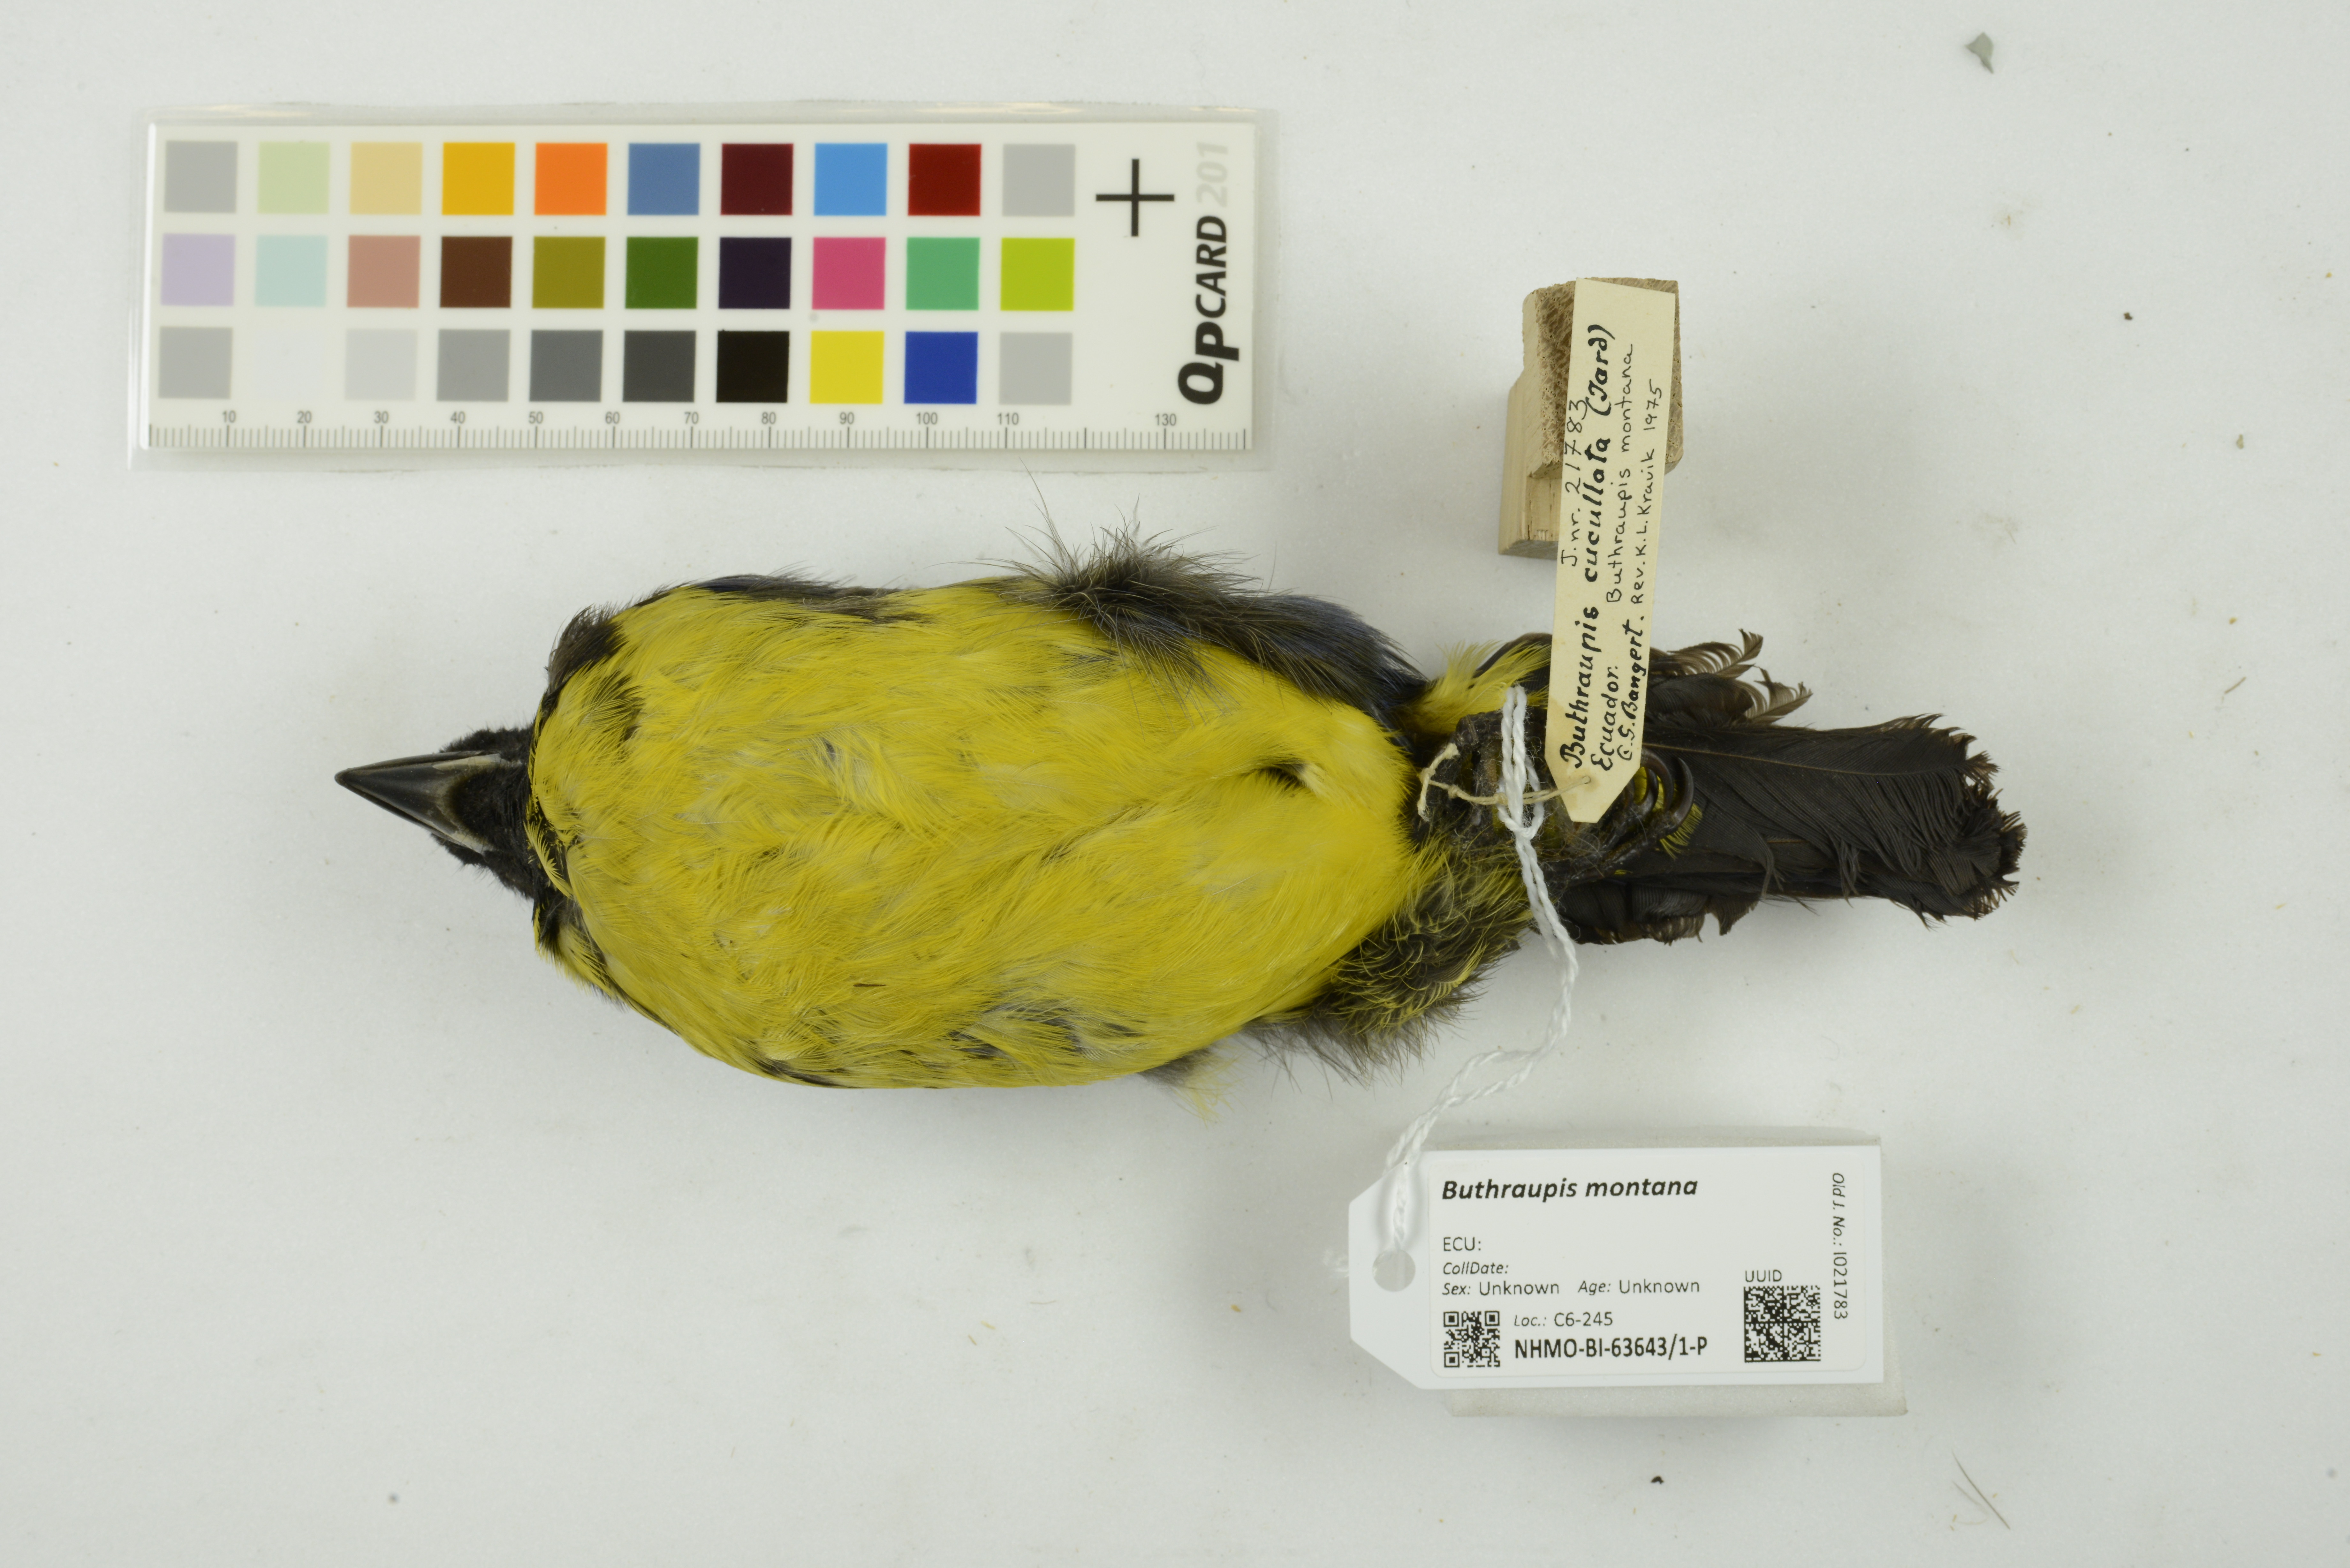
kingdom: Animalia
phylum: Chordata
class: Aves
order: Passeriformes
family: Thraupidae
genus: Buthraupis
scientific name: Buthraupis montana
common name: Hooded mountain tanager
